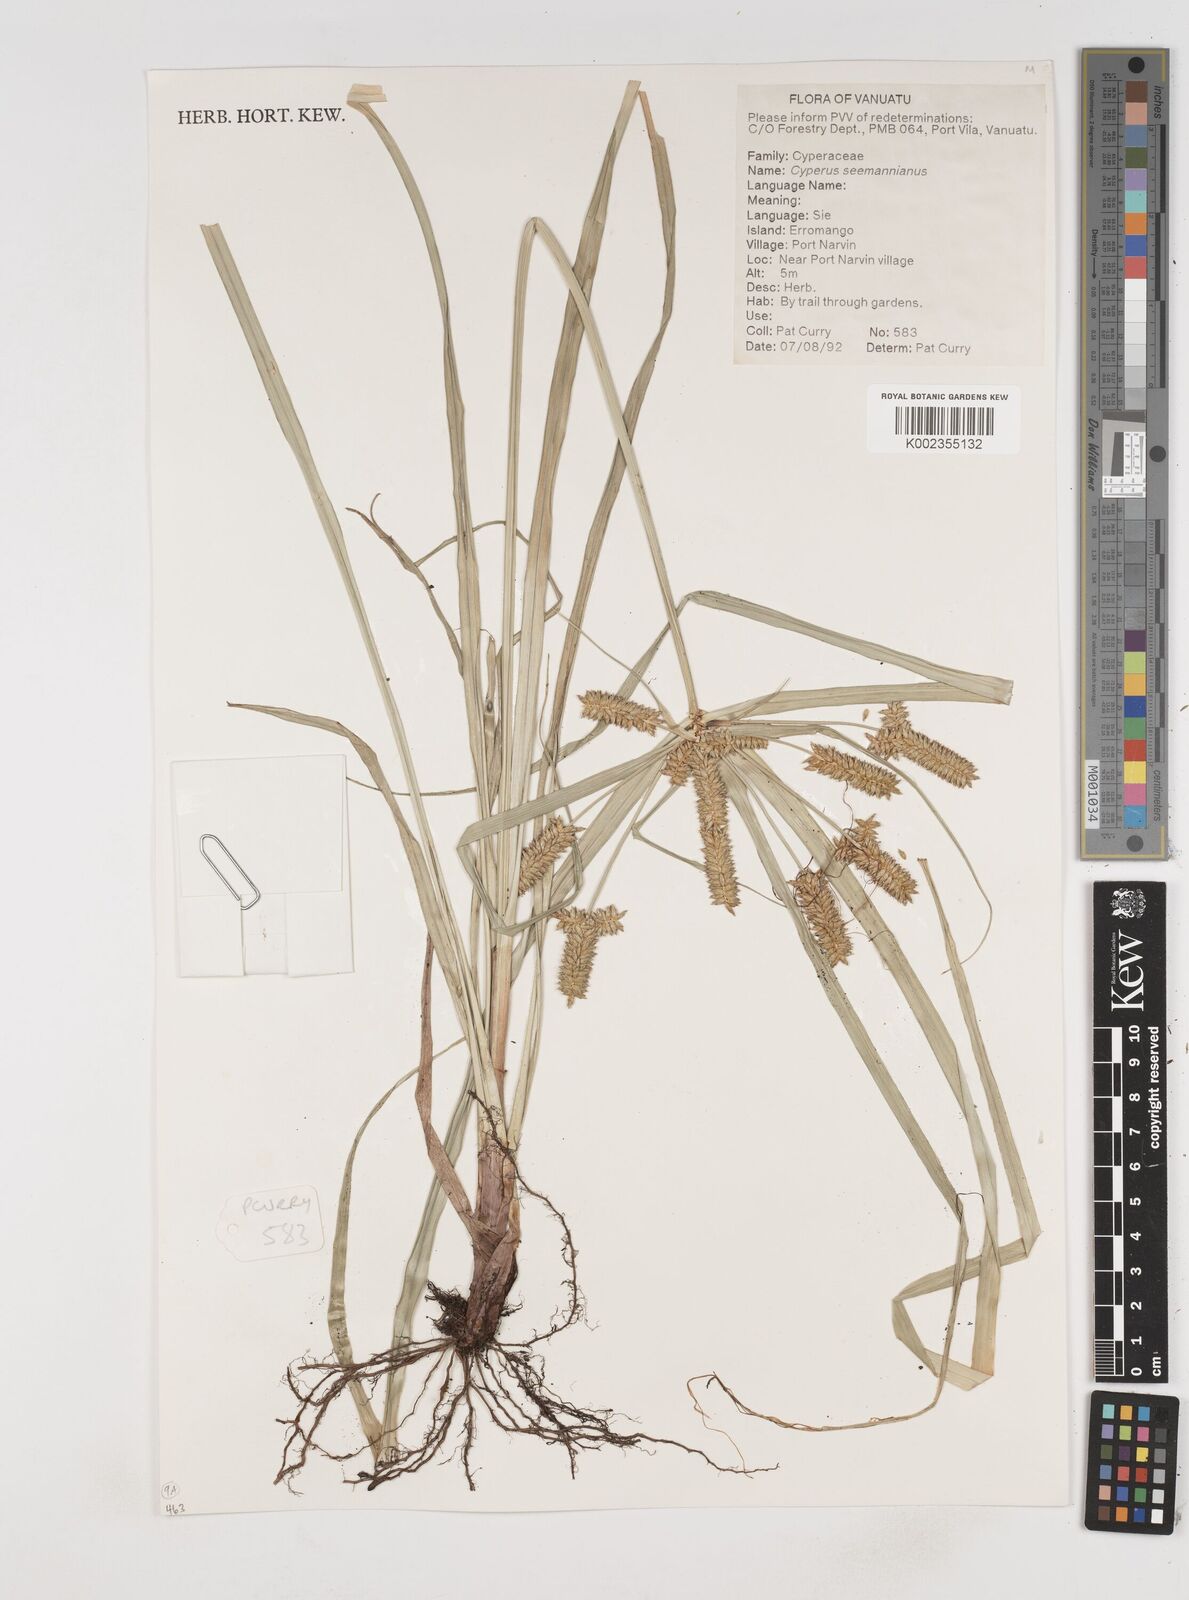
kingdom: Plantae
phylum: Tracheophyta
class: Liliopsida
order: Poales
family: Cyperaceae
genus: Cyperus
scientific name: Cyperus seemannianus
